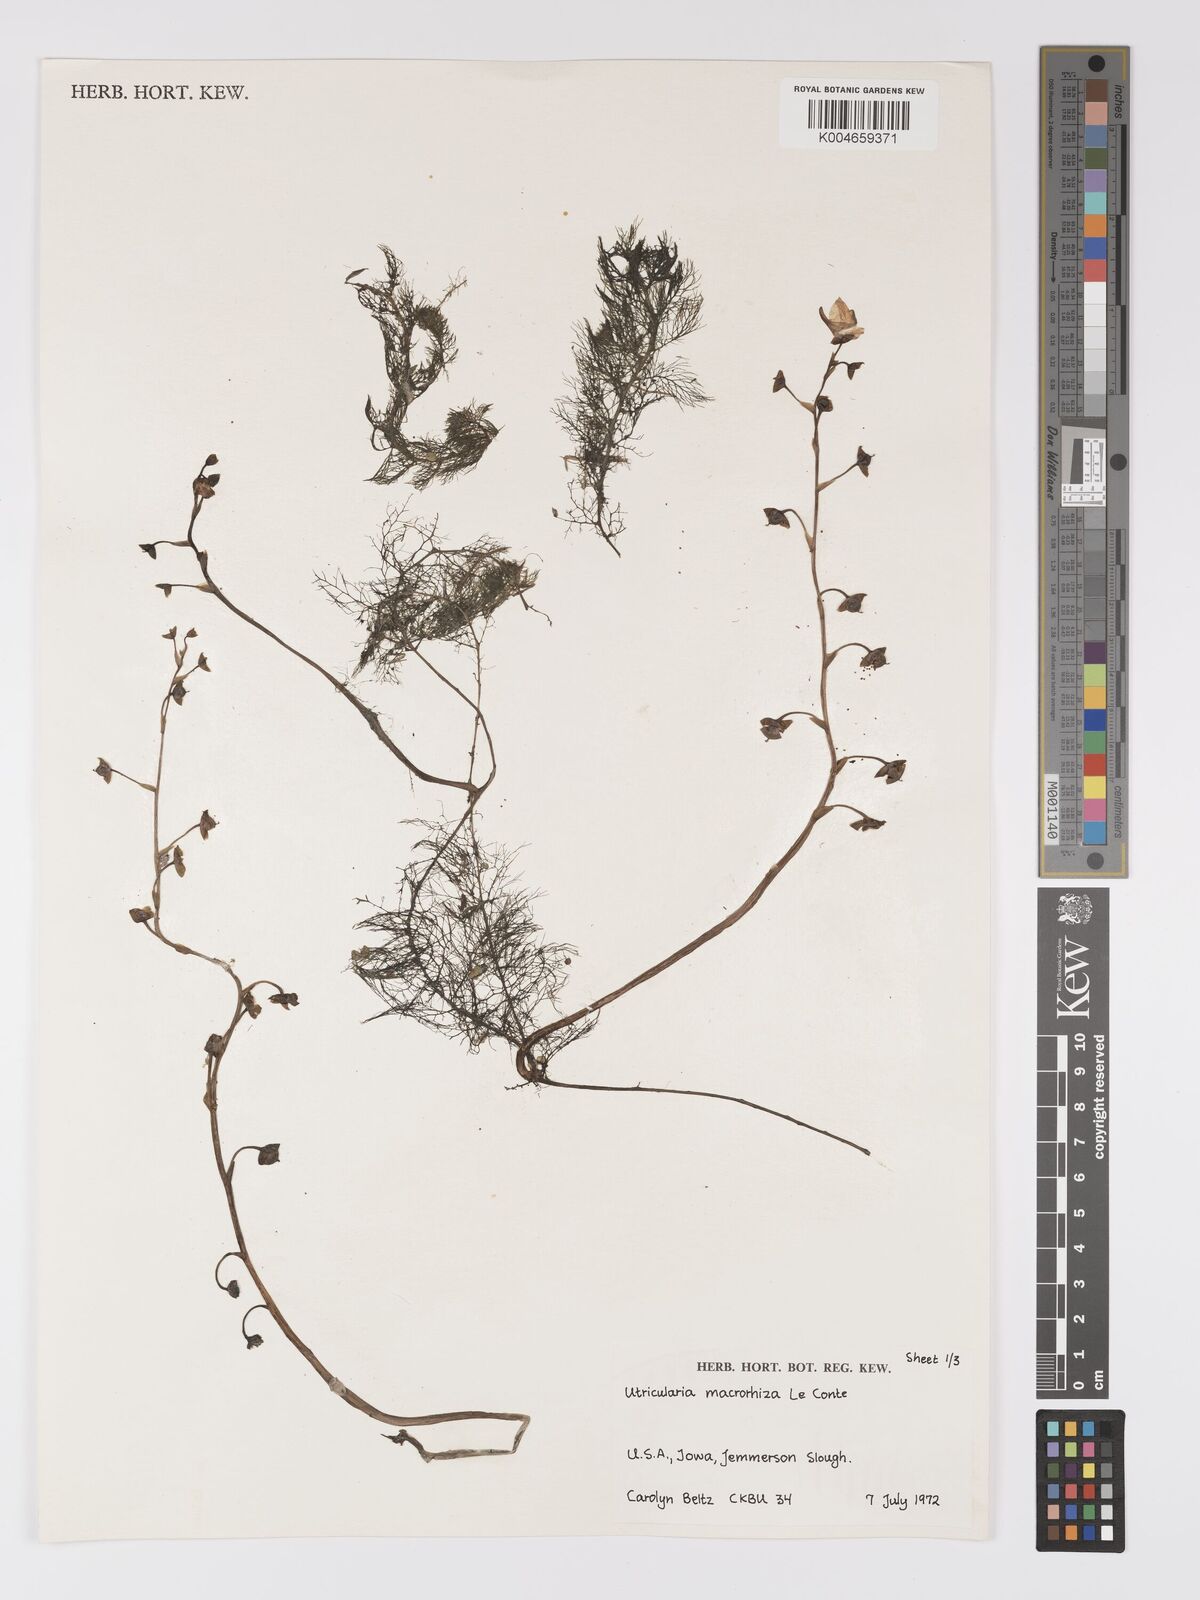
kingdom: Plantae
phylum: Tracheophyta
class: Magnoliopsida
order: Lamiales
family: Lentibulariaceae
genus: Utricularia
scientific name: Utricularia macrorhiza
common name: Common bladderwort
